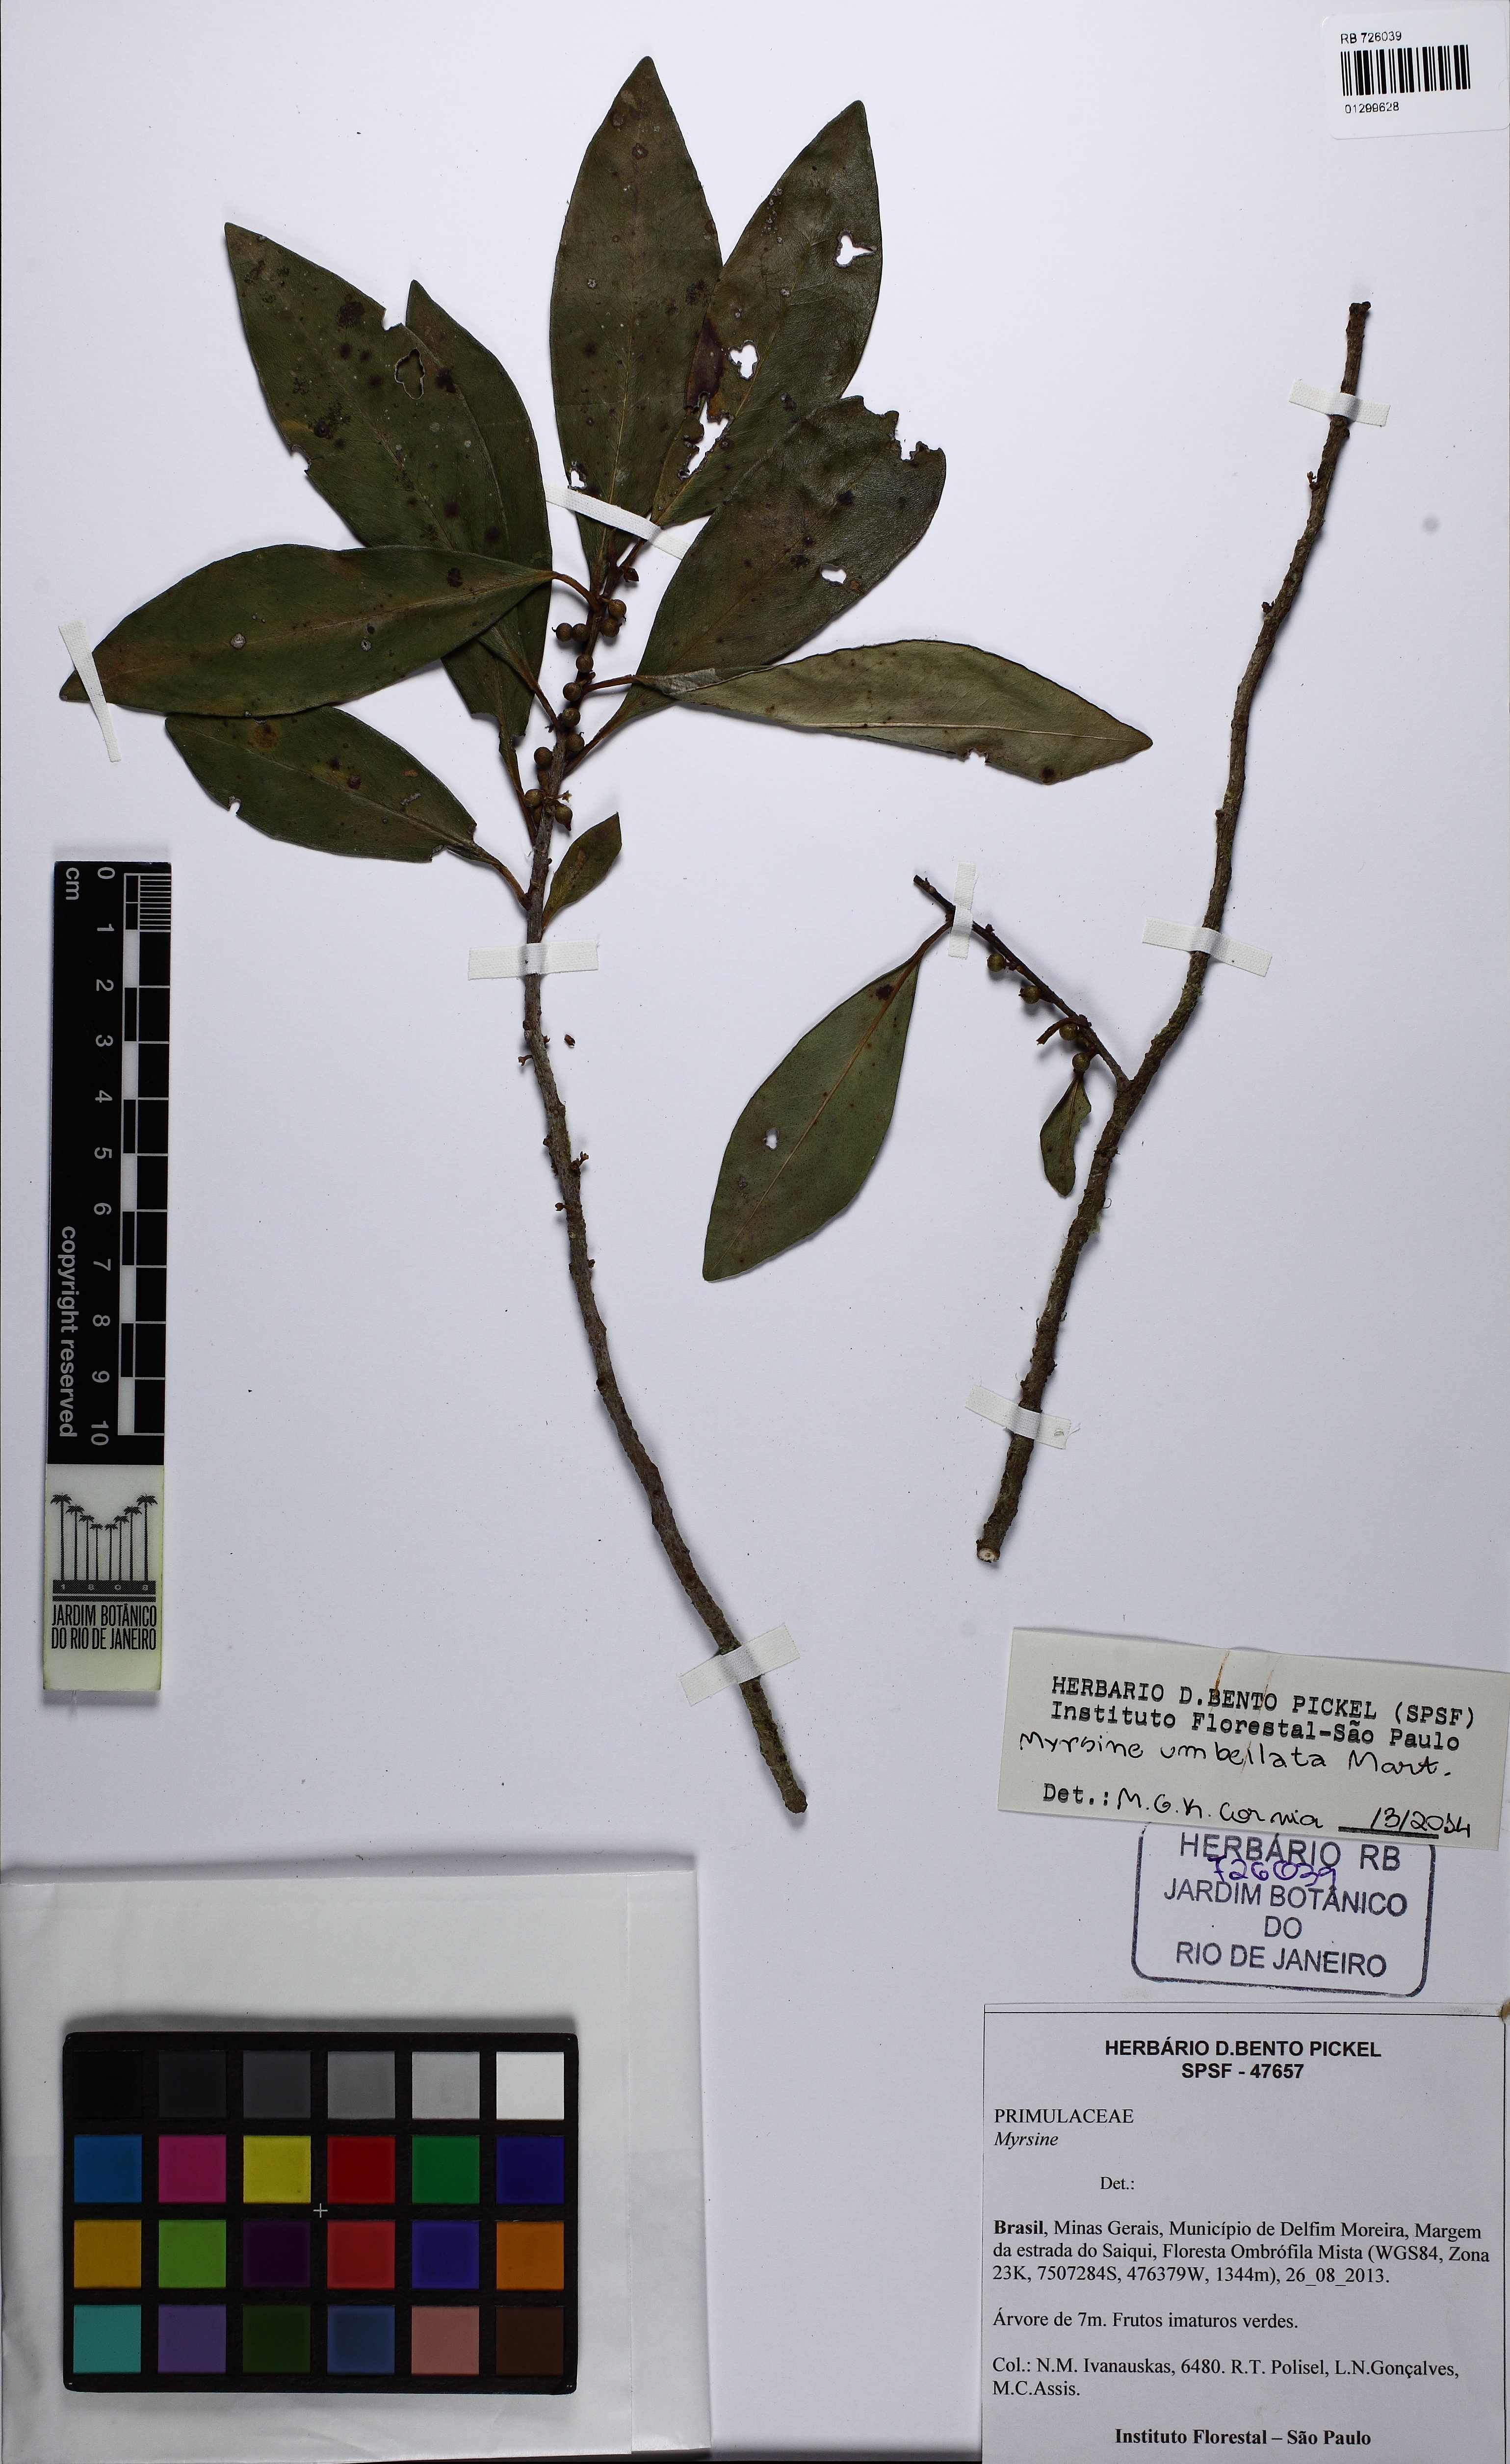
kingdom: Plantae
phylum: Tracheophyta
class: Magnoliopsida
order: Ericales
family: Primulaceae
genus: Myrsine
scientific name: Myrsine umbellata
